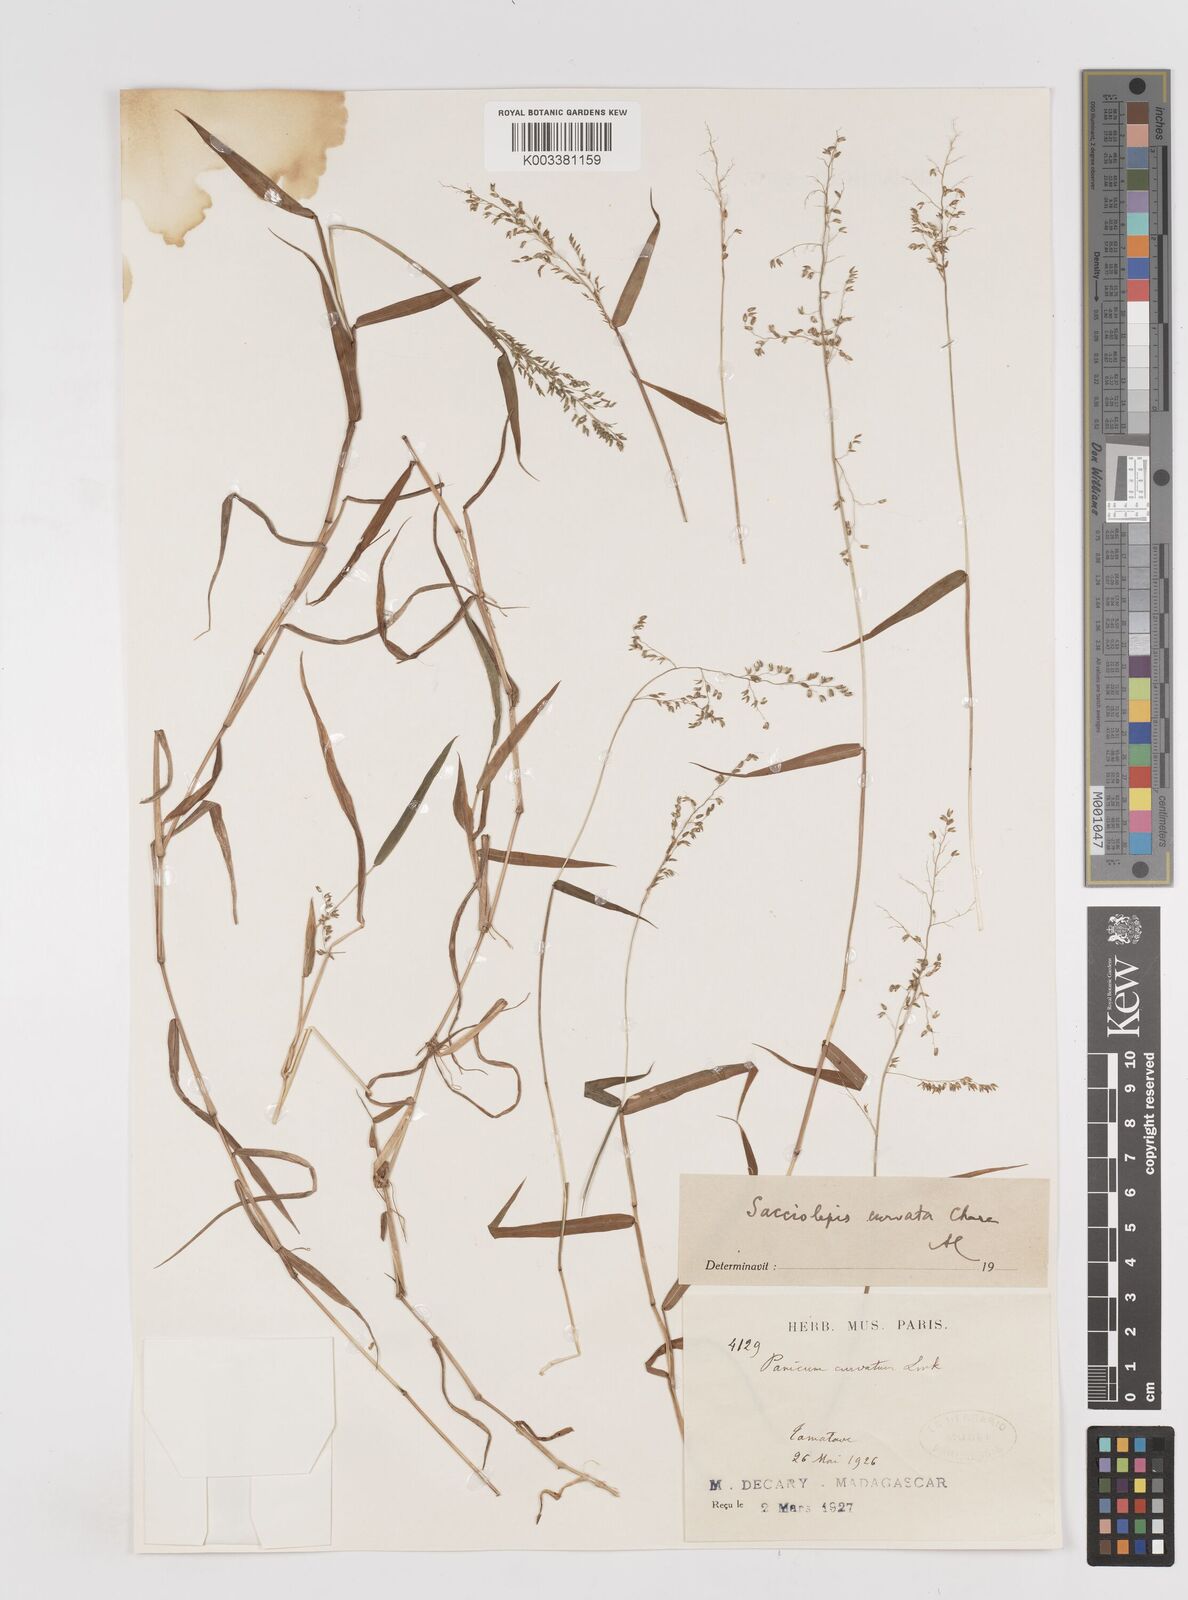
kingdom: Plantae
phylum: Tracheophyta
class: Liliopsida
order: Poales
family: Poaceae
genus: Sacciolepis
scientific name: Sacciolepis curvata
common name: Forest hood grass
